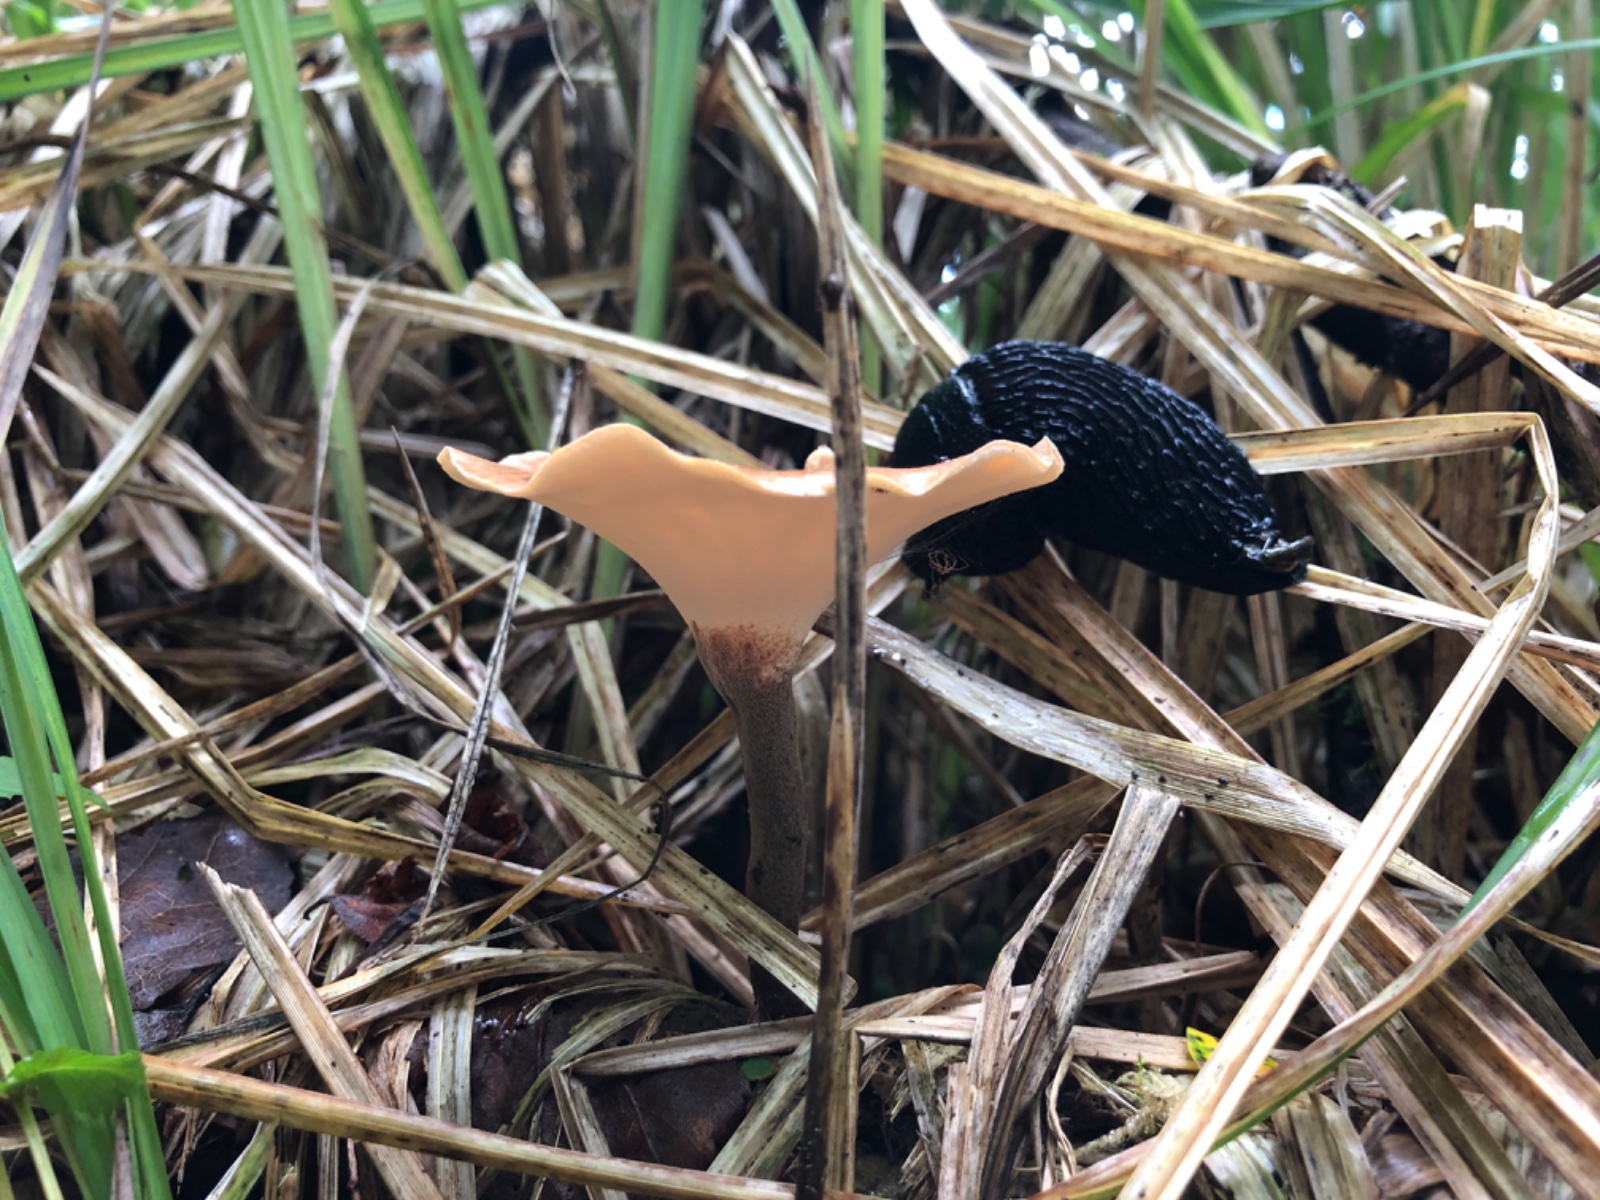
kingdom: Fungi
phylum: Basidiomycota
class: Agaricomycetes
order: Polyporales
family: Polyporaceae
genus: Picipes
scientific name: Picipes tubaeformis
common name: trompet-stilkporesvamp
